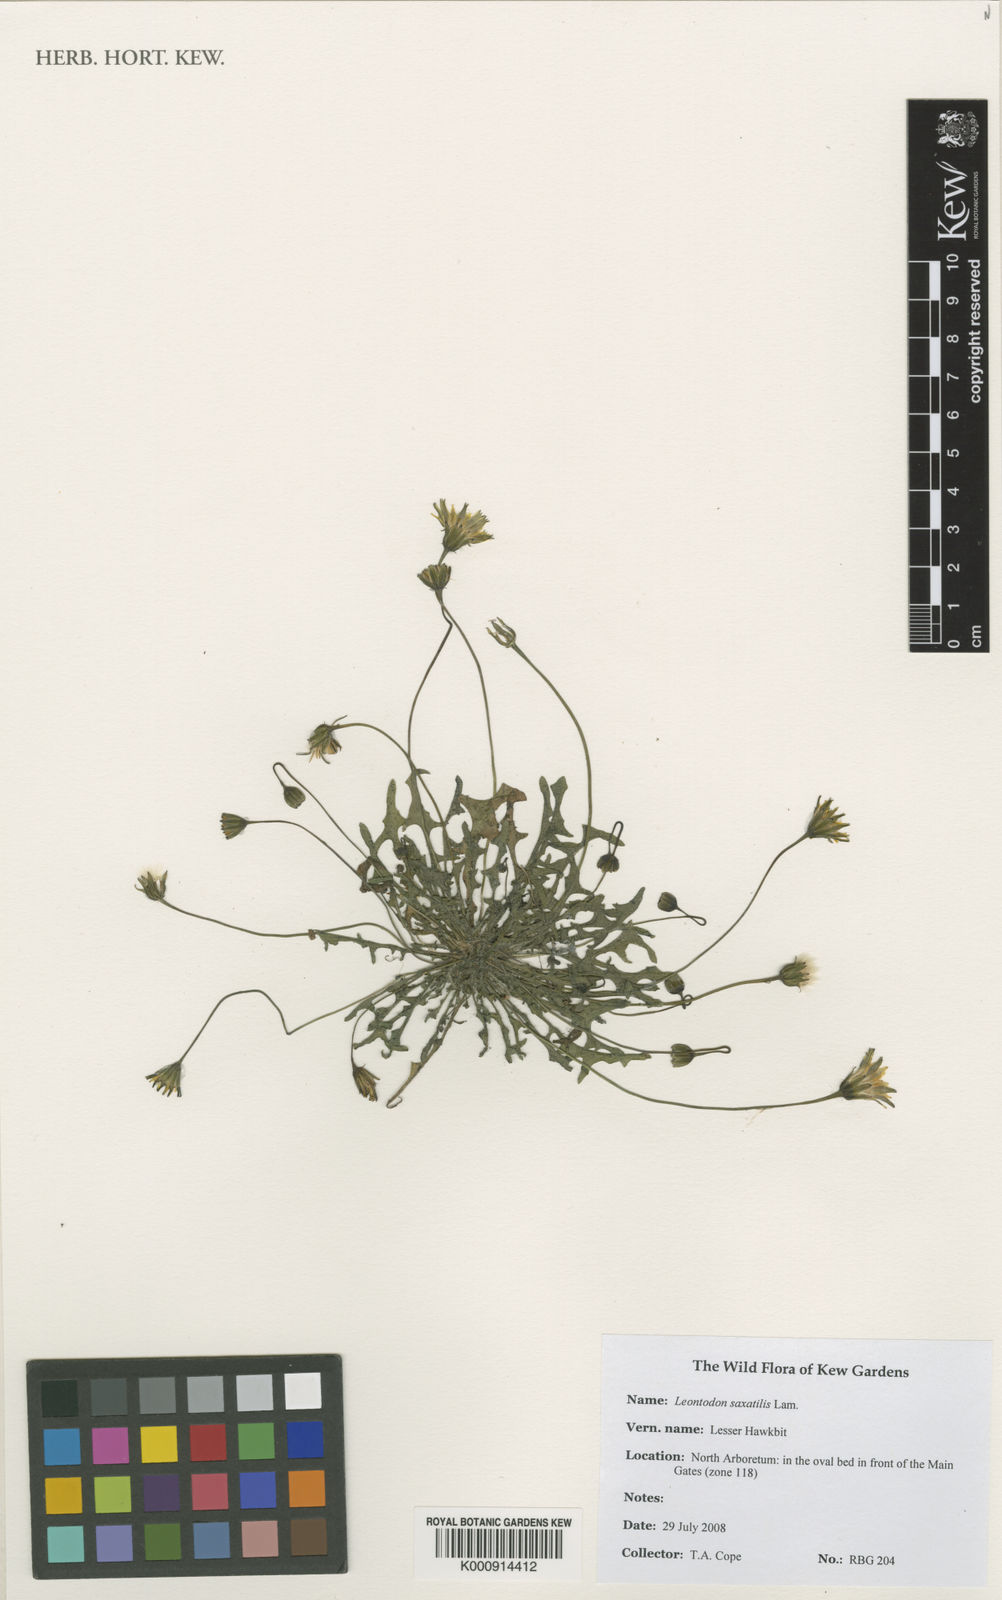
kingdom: Plantae
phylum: Tracheophyta
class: Magnoliopsida
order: Asterales
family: Asteraceae
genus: Thrincia
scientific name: Thrincia saxatilis
